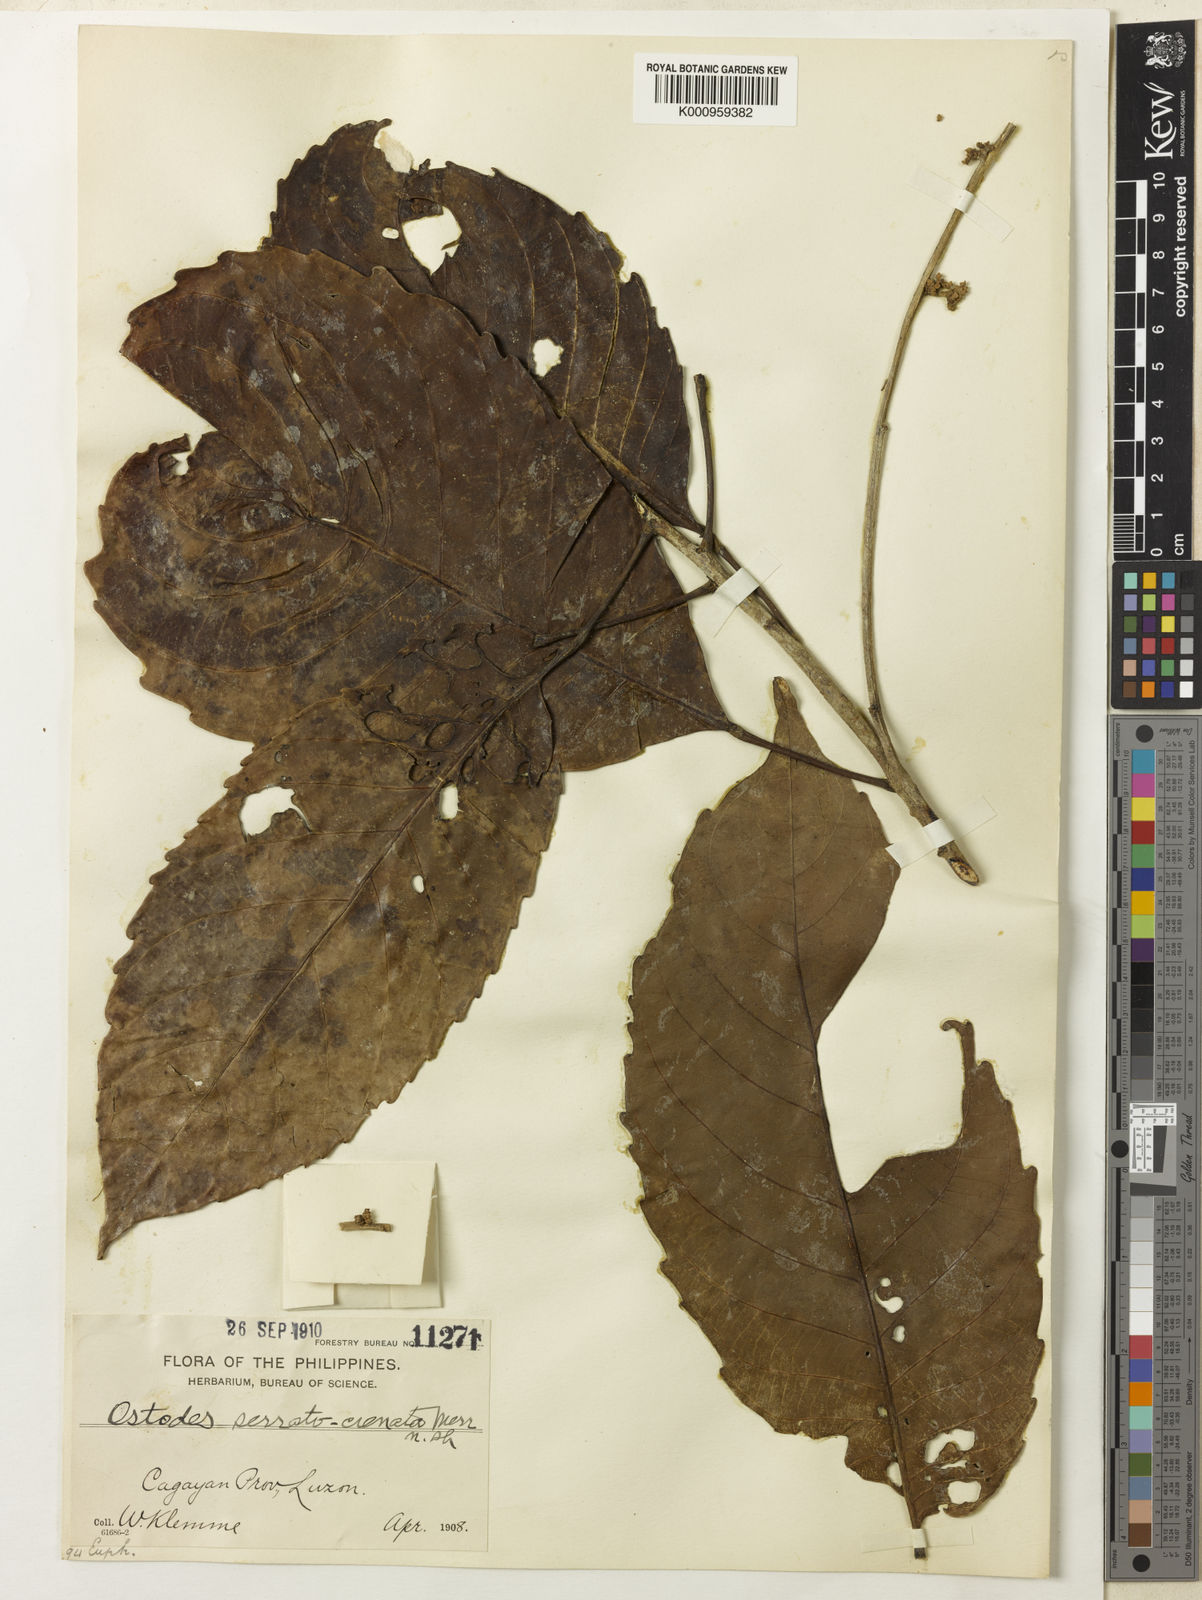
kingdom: Plantae
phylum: Tracheophyta
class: Magnoliopsida
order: Malpighiales
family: Euphorbiaceae
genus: Paracroton
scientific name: Paracroton pendulus
